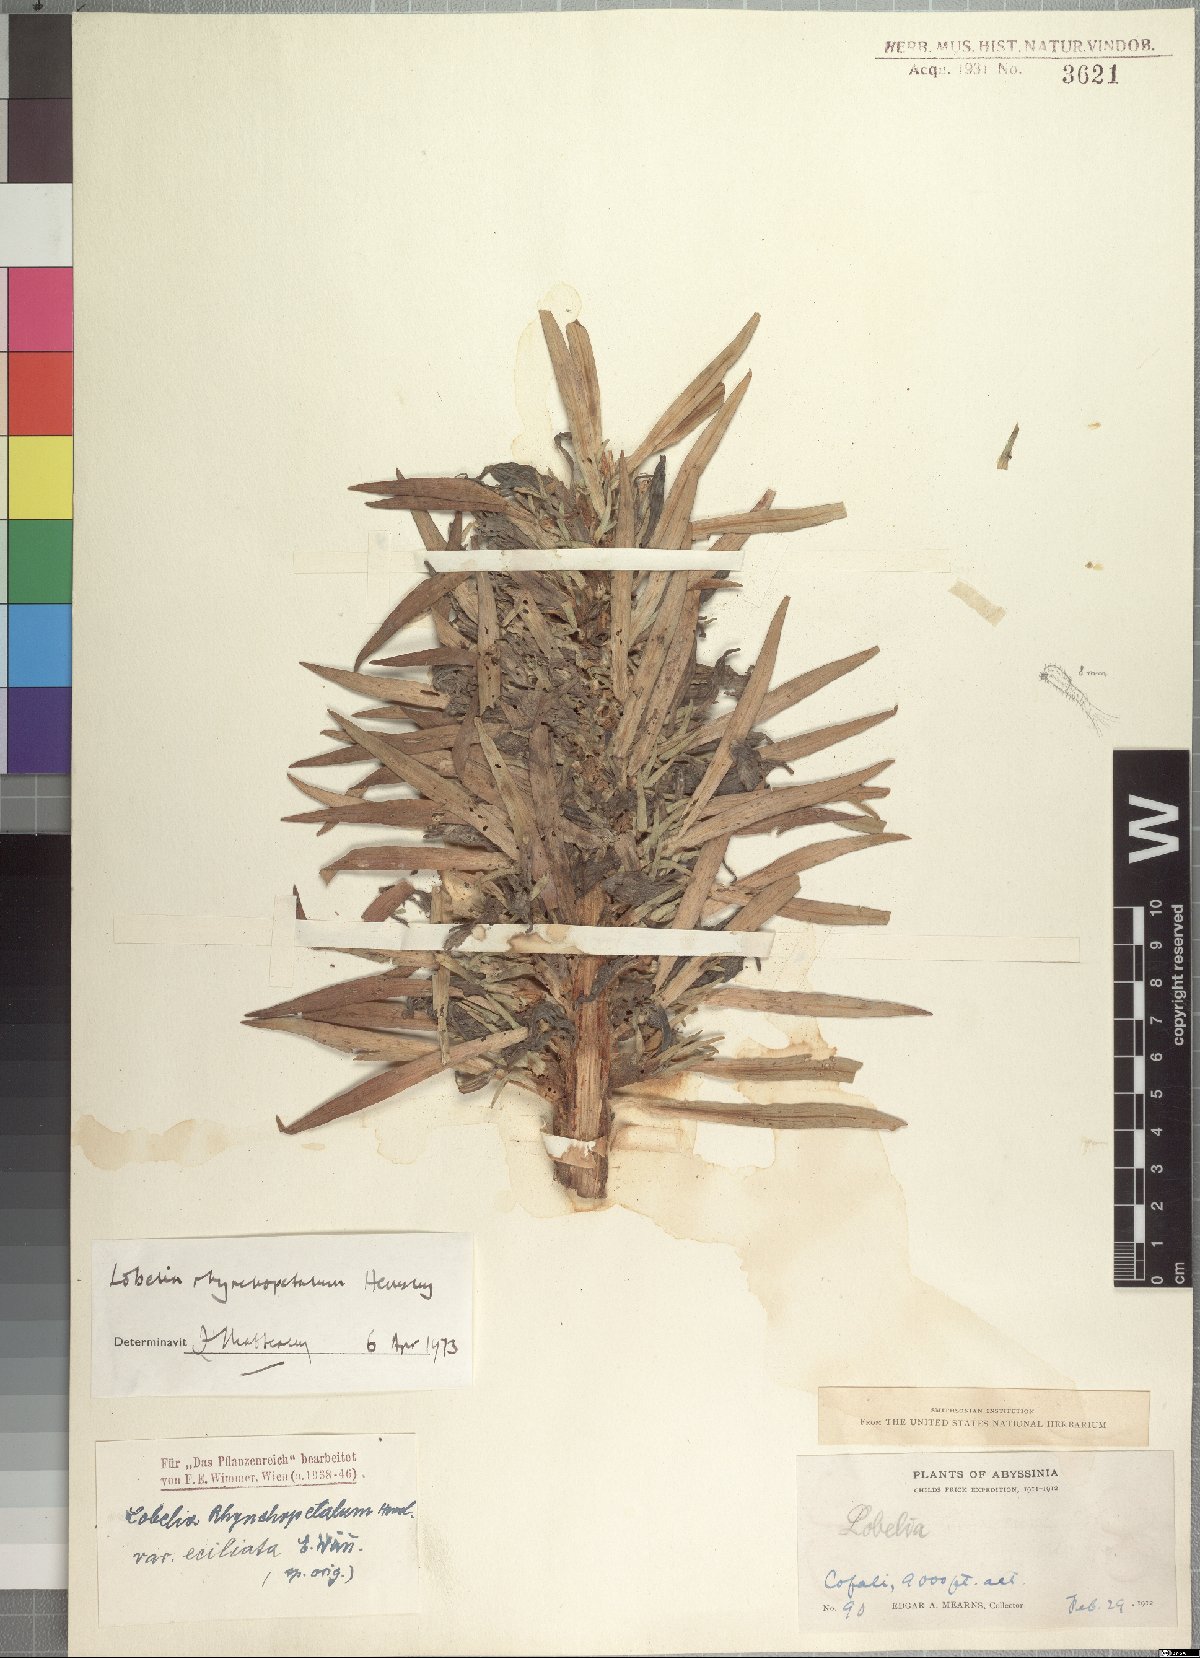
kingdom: Plantae
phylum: Tracheophyta
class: Magnoliopsida
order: Asterales
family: Campanulaceae
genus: Lobelia
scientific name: Lobelia acrochila
